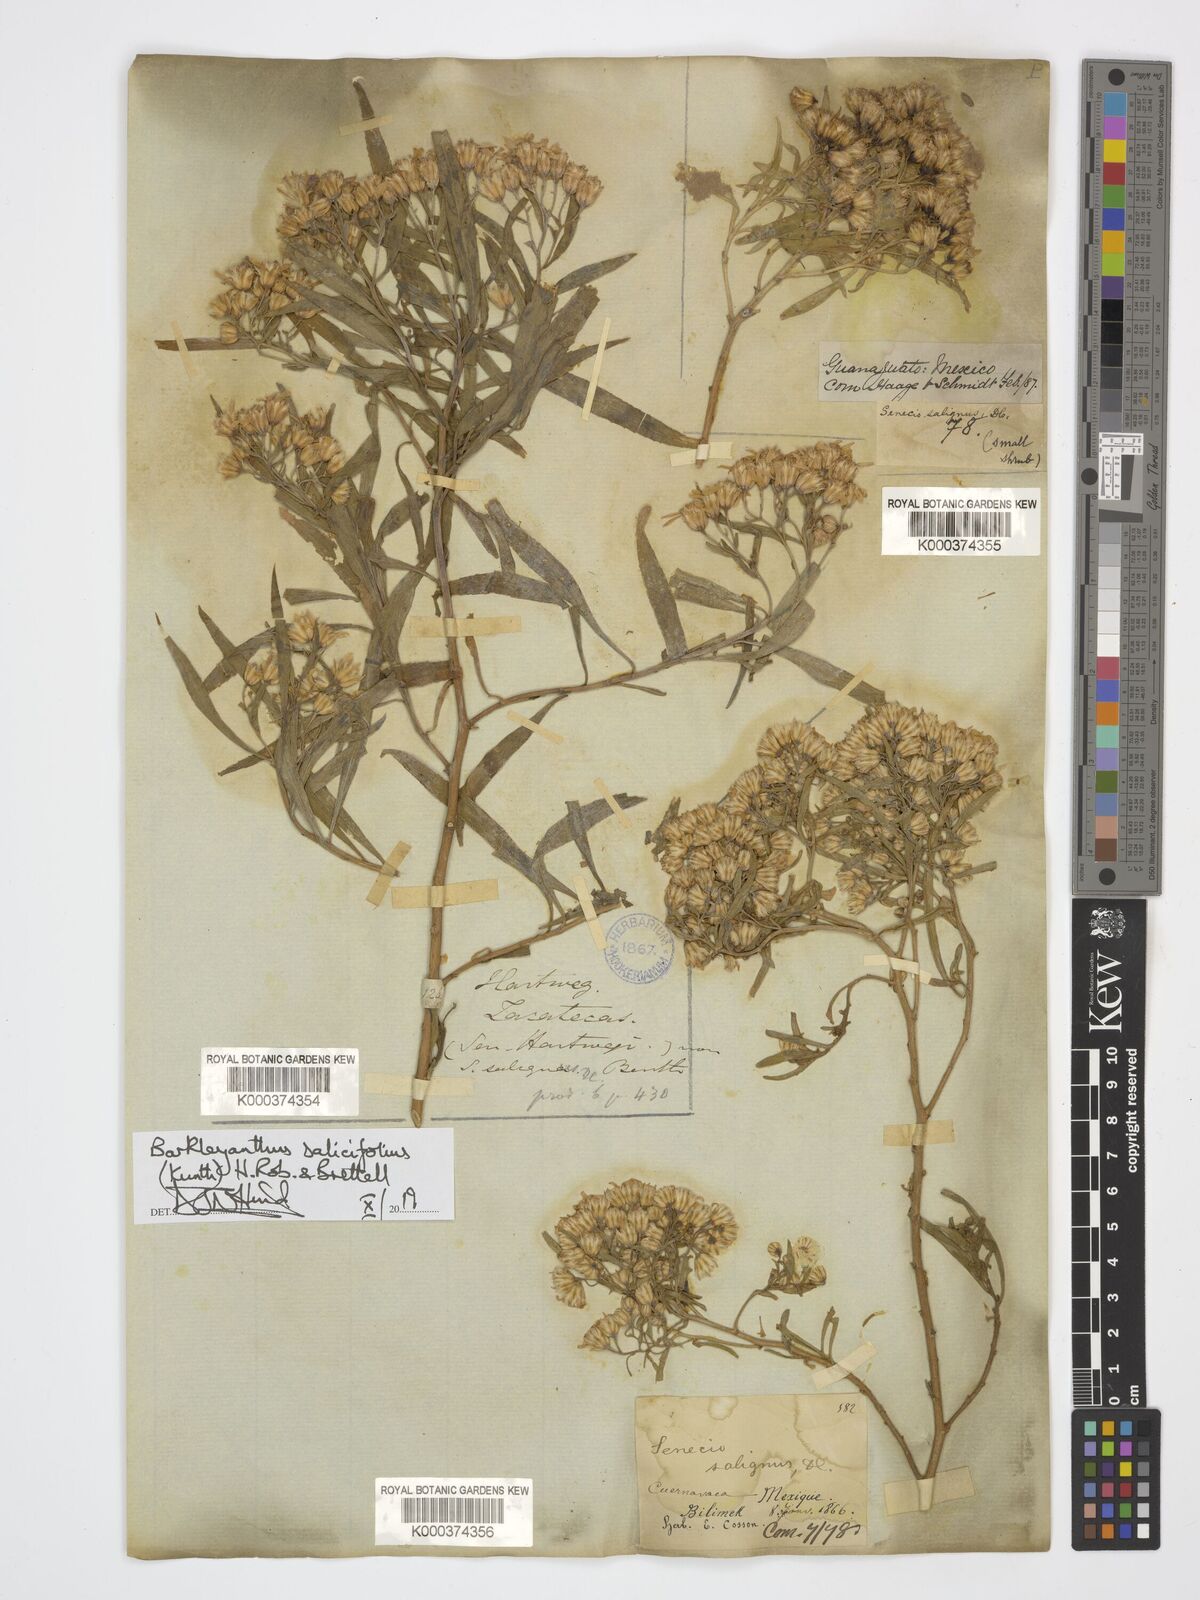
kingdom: Plantae
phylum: Tracheophyta
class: Magnoliopsida
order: Asterales
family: Asteraceae
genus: Barkleyanthus
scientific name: Barkleyanthus salicifolius
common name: Willow ragwort
